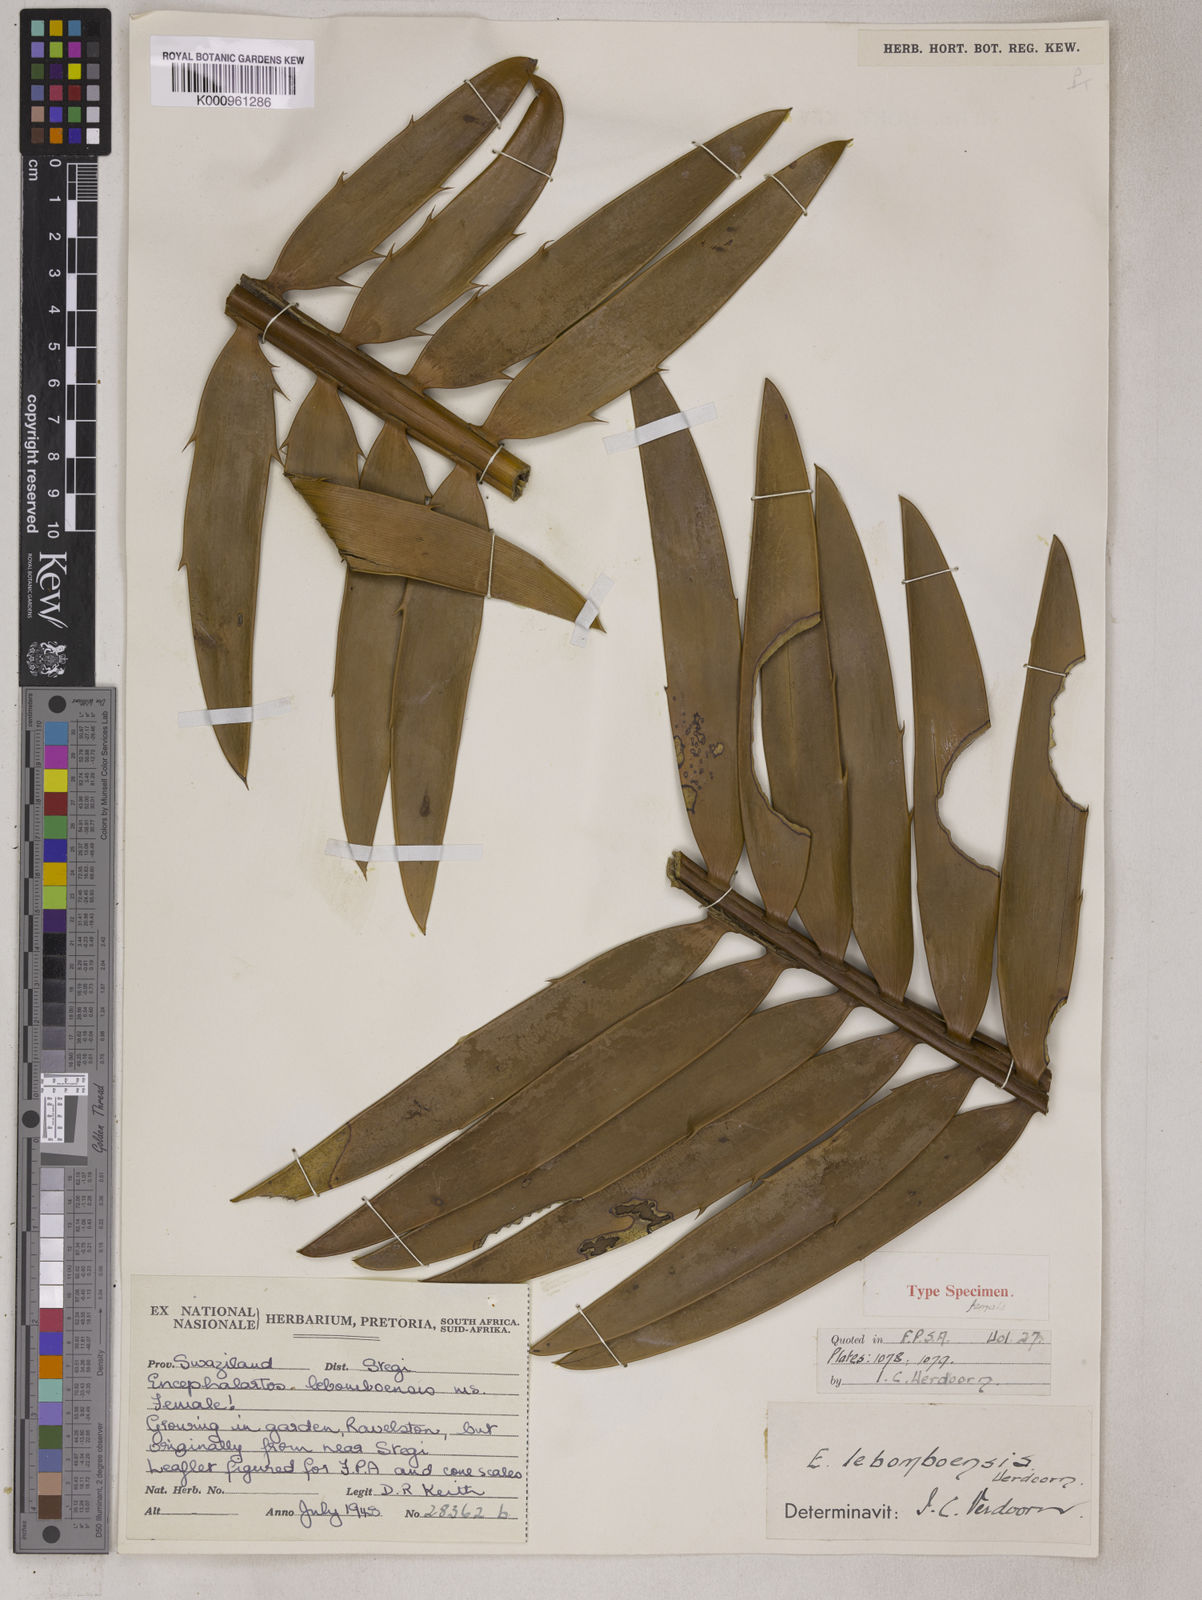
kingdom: Plantae
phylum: Tracheophyta
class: Cycadopsida
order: Cycadales
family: Zamiaceae
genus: Encephalartos
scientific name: Encephalartos lebomboensis
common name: Lebombo cycad
